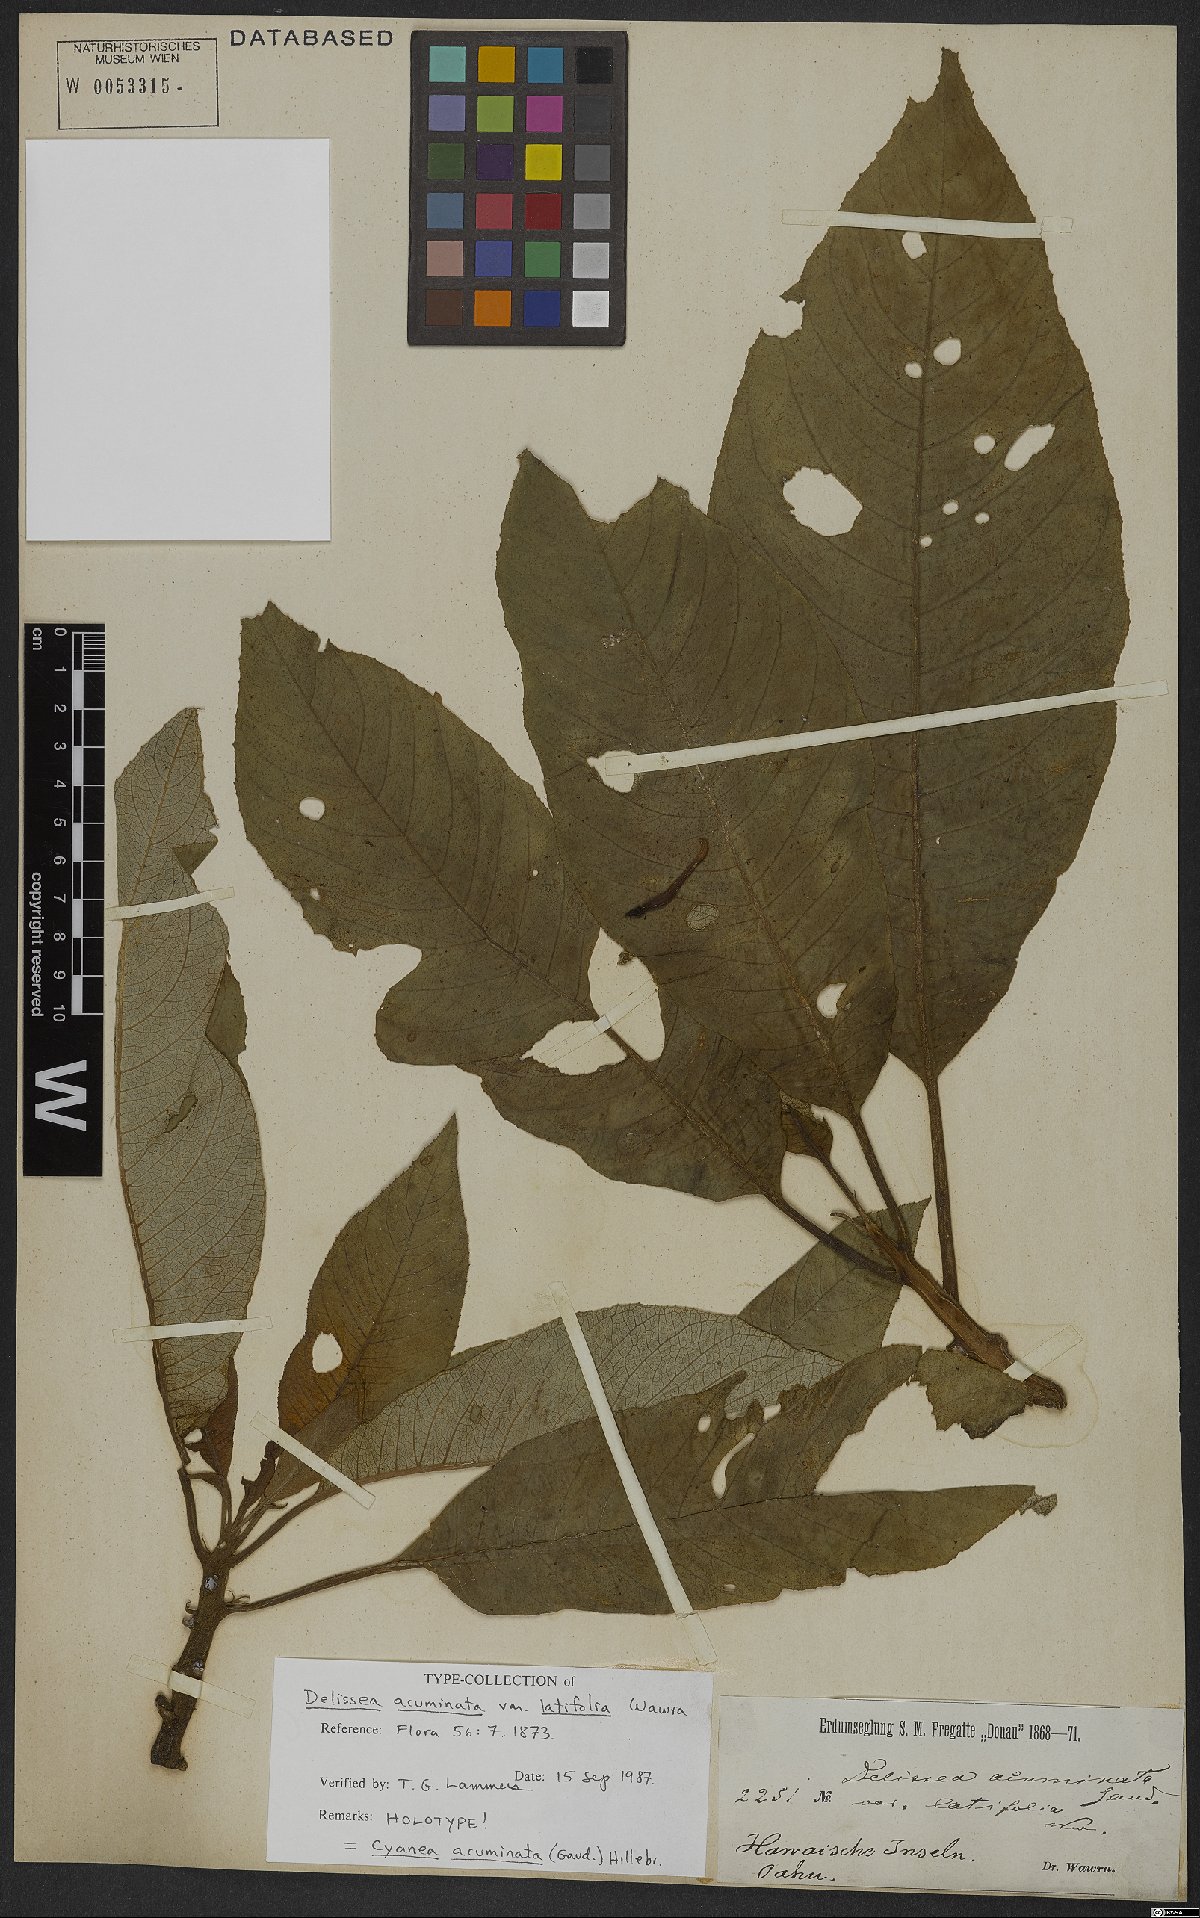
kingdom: Plantae
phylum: Tracheophyta
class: Magnoliopsida
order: Asterales
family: Campanulaceae
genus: Cyanea
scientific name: Cyanea acuminata
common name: Honolulu cyanea
